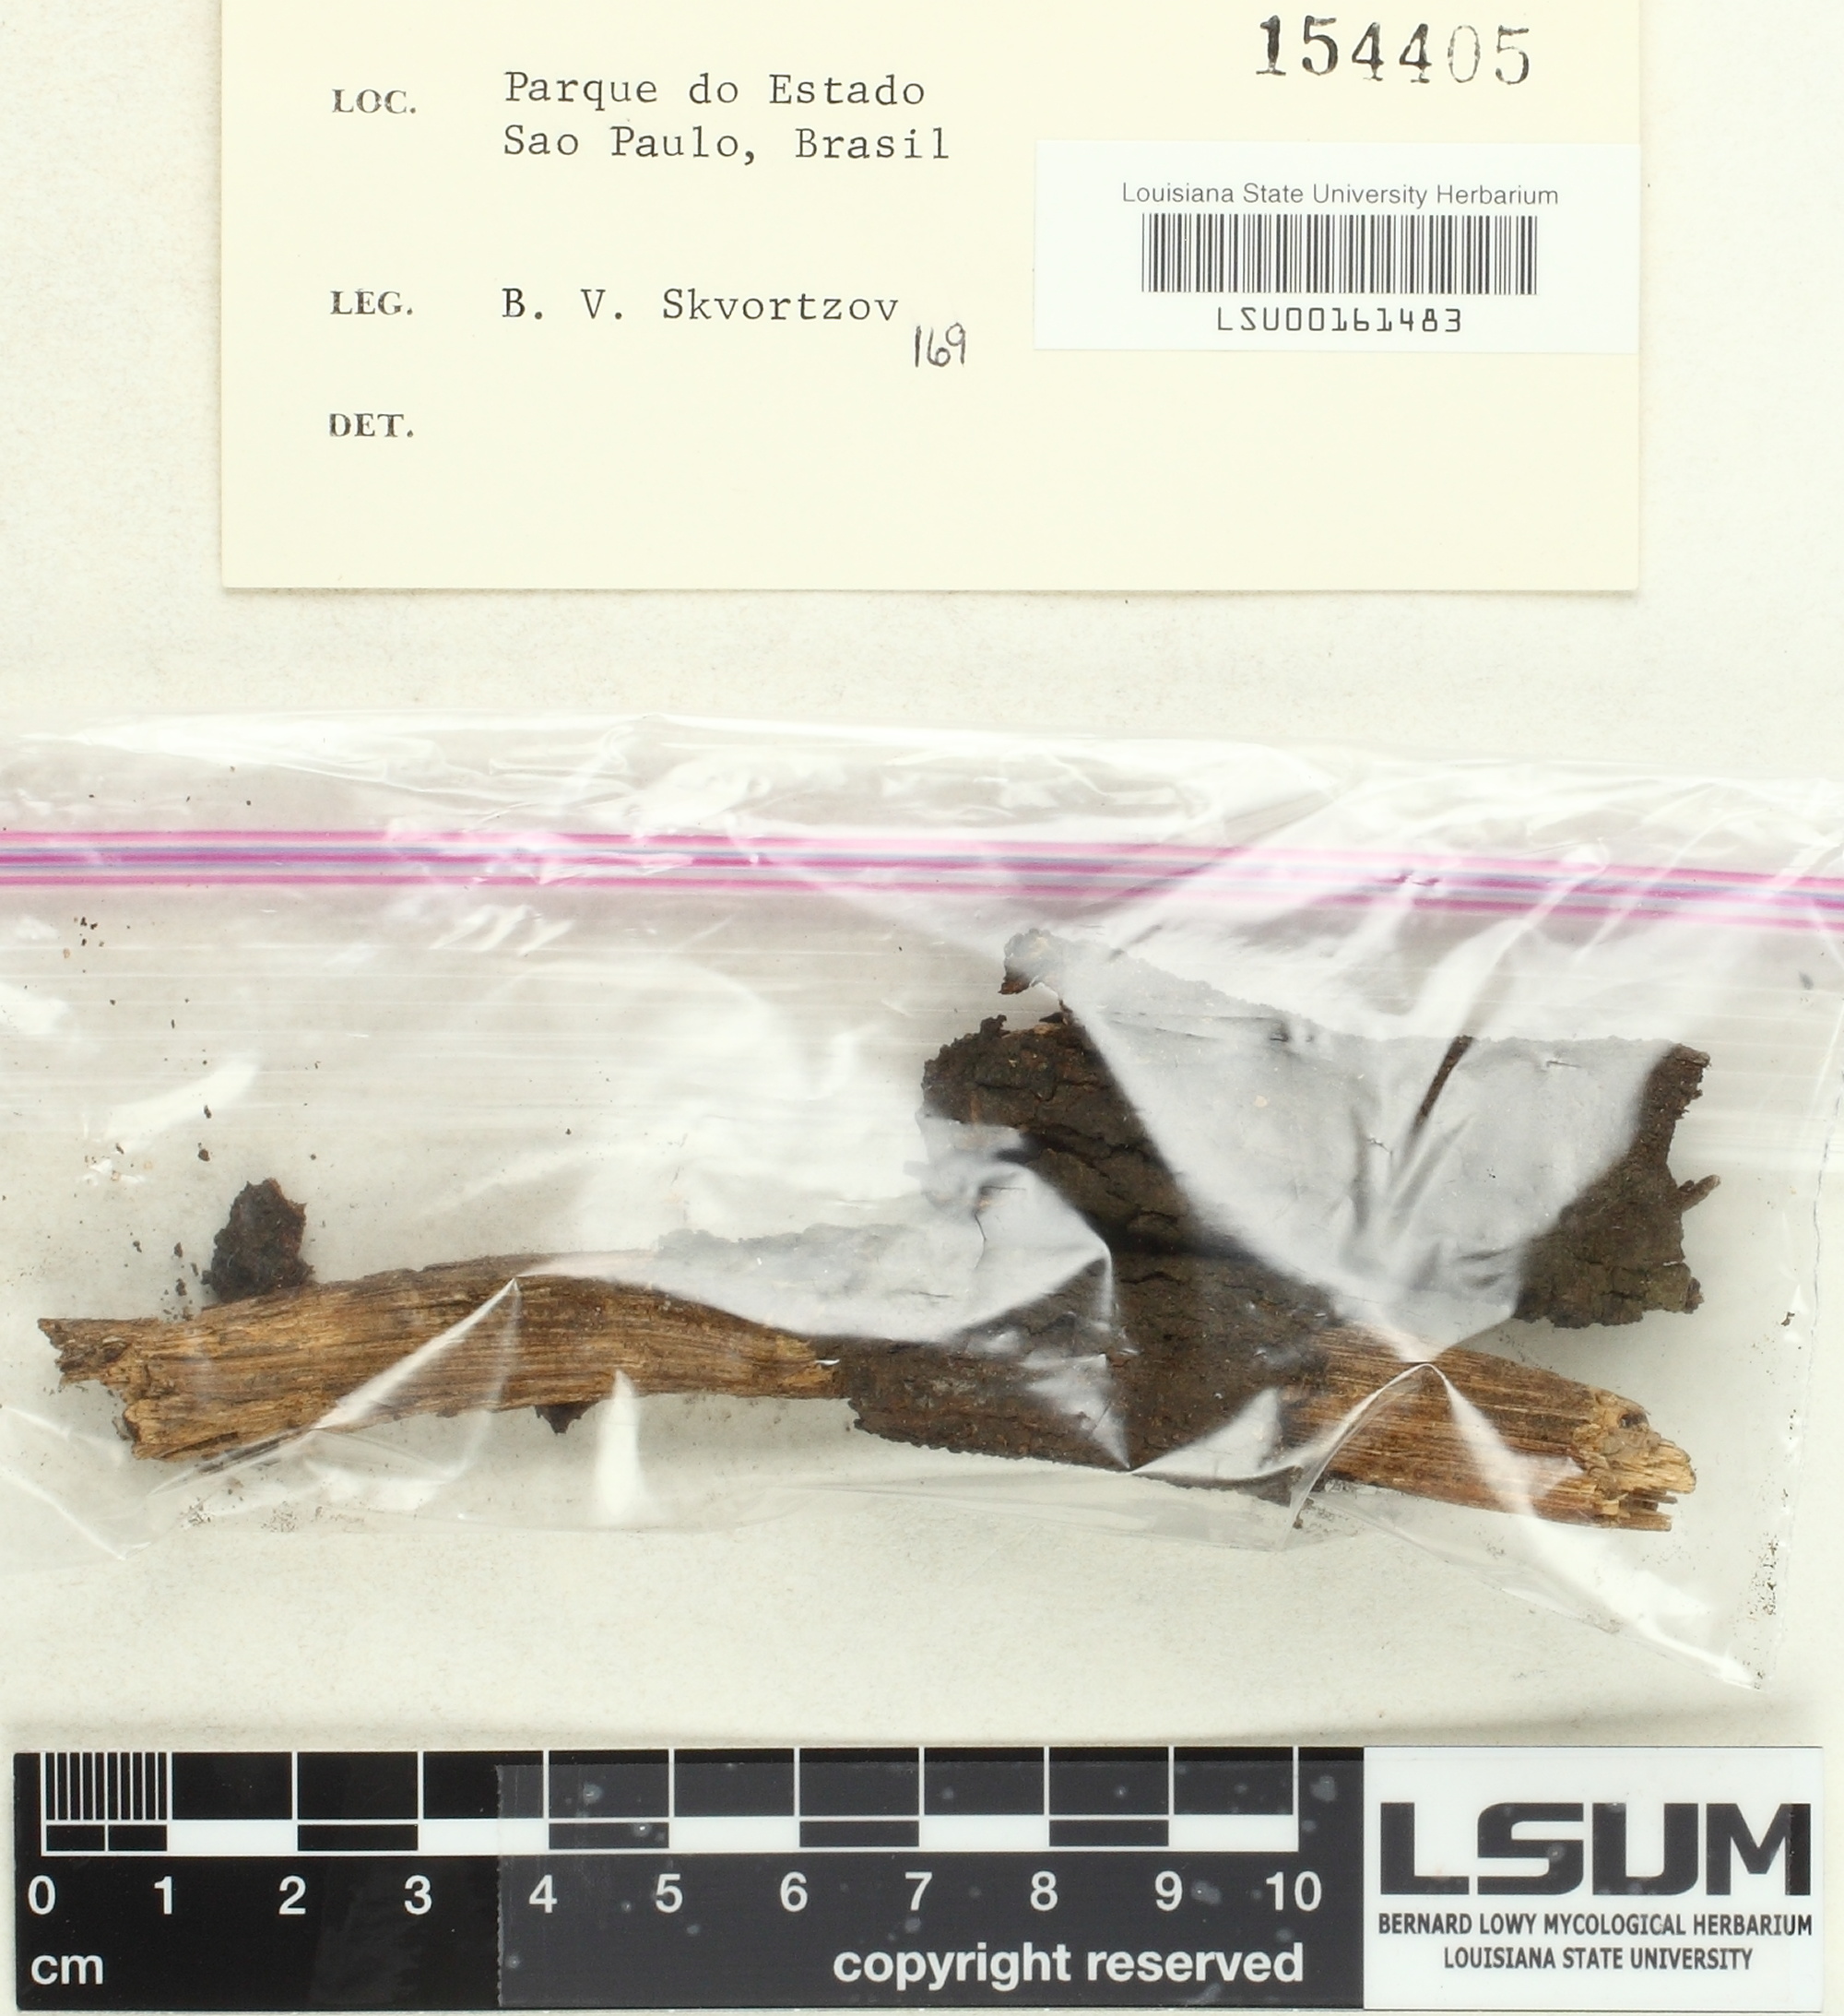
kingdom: Fungi
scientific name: Fungi
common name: Fungi
